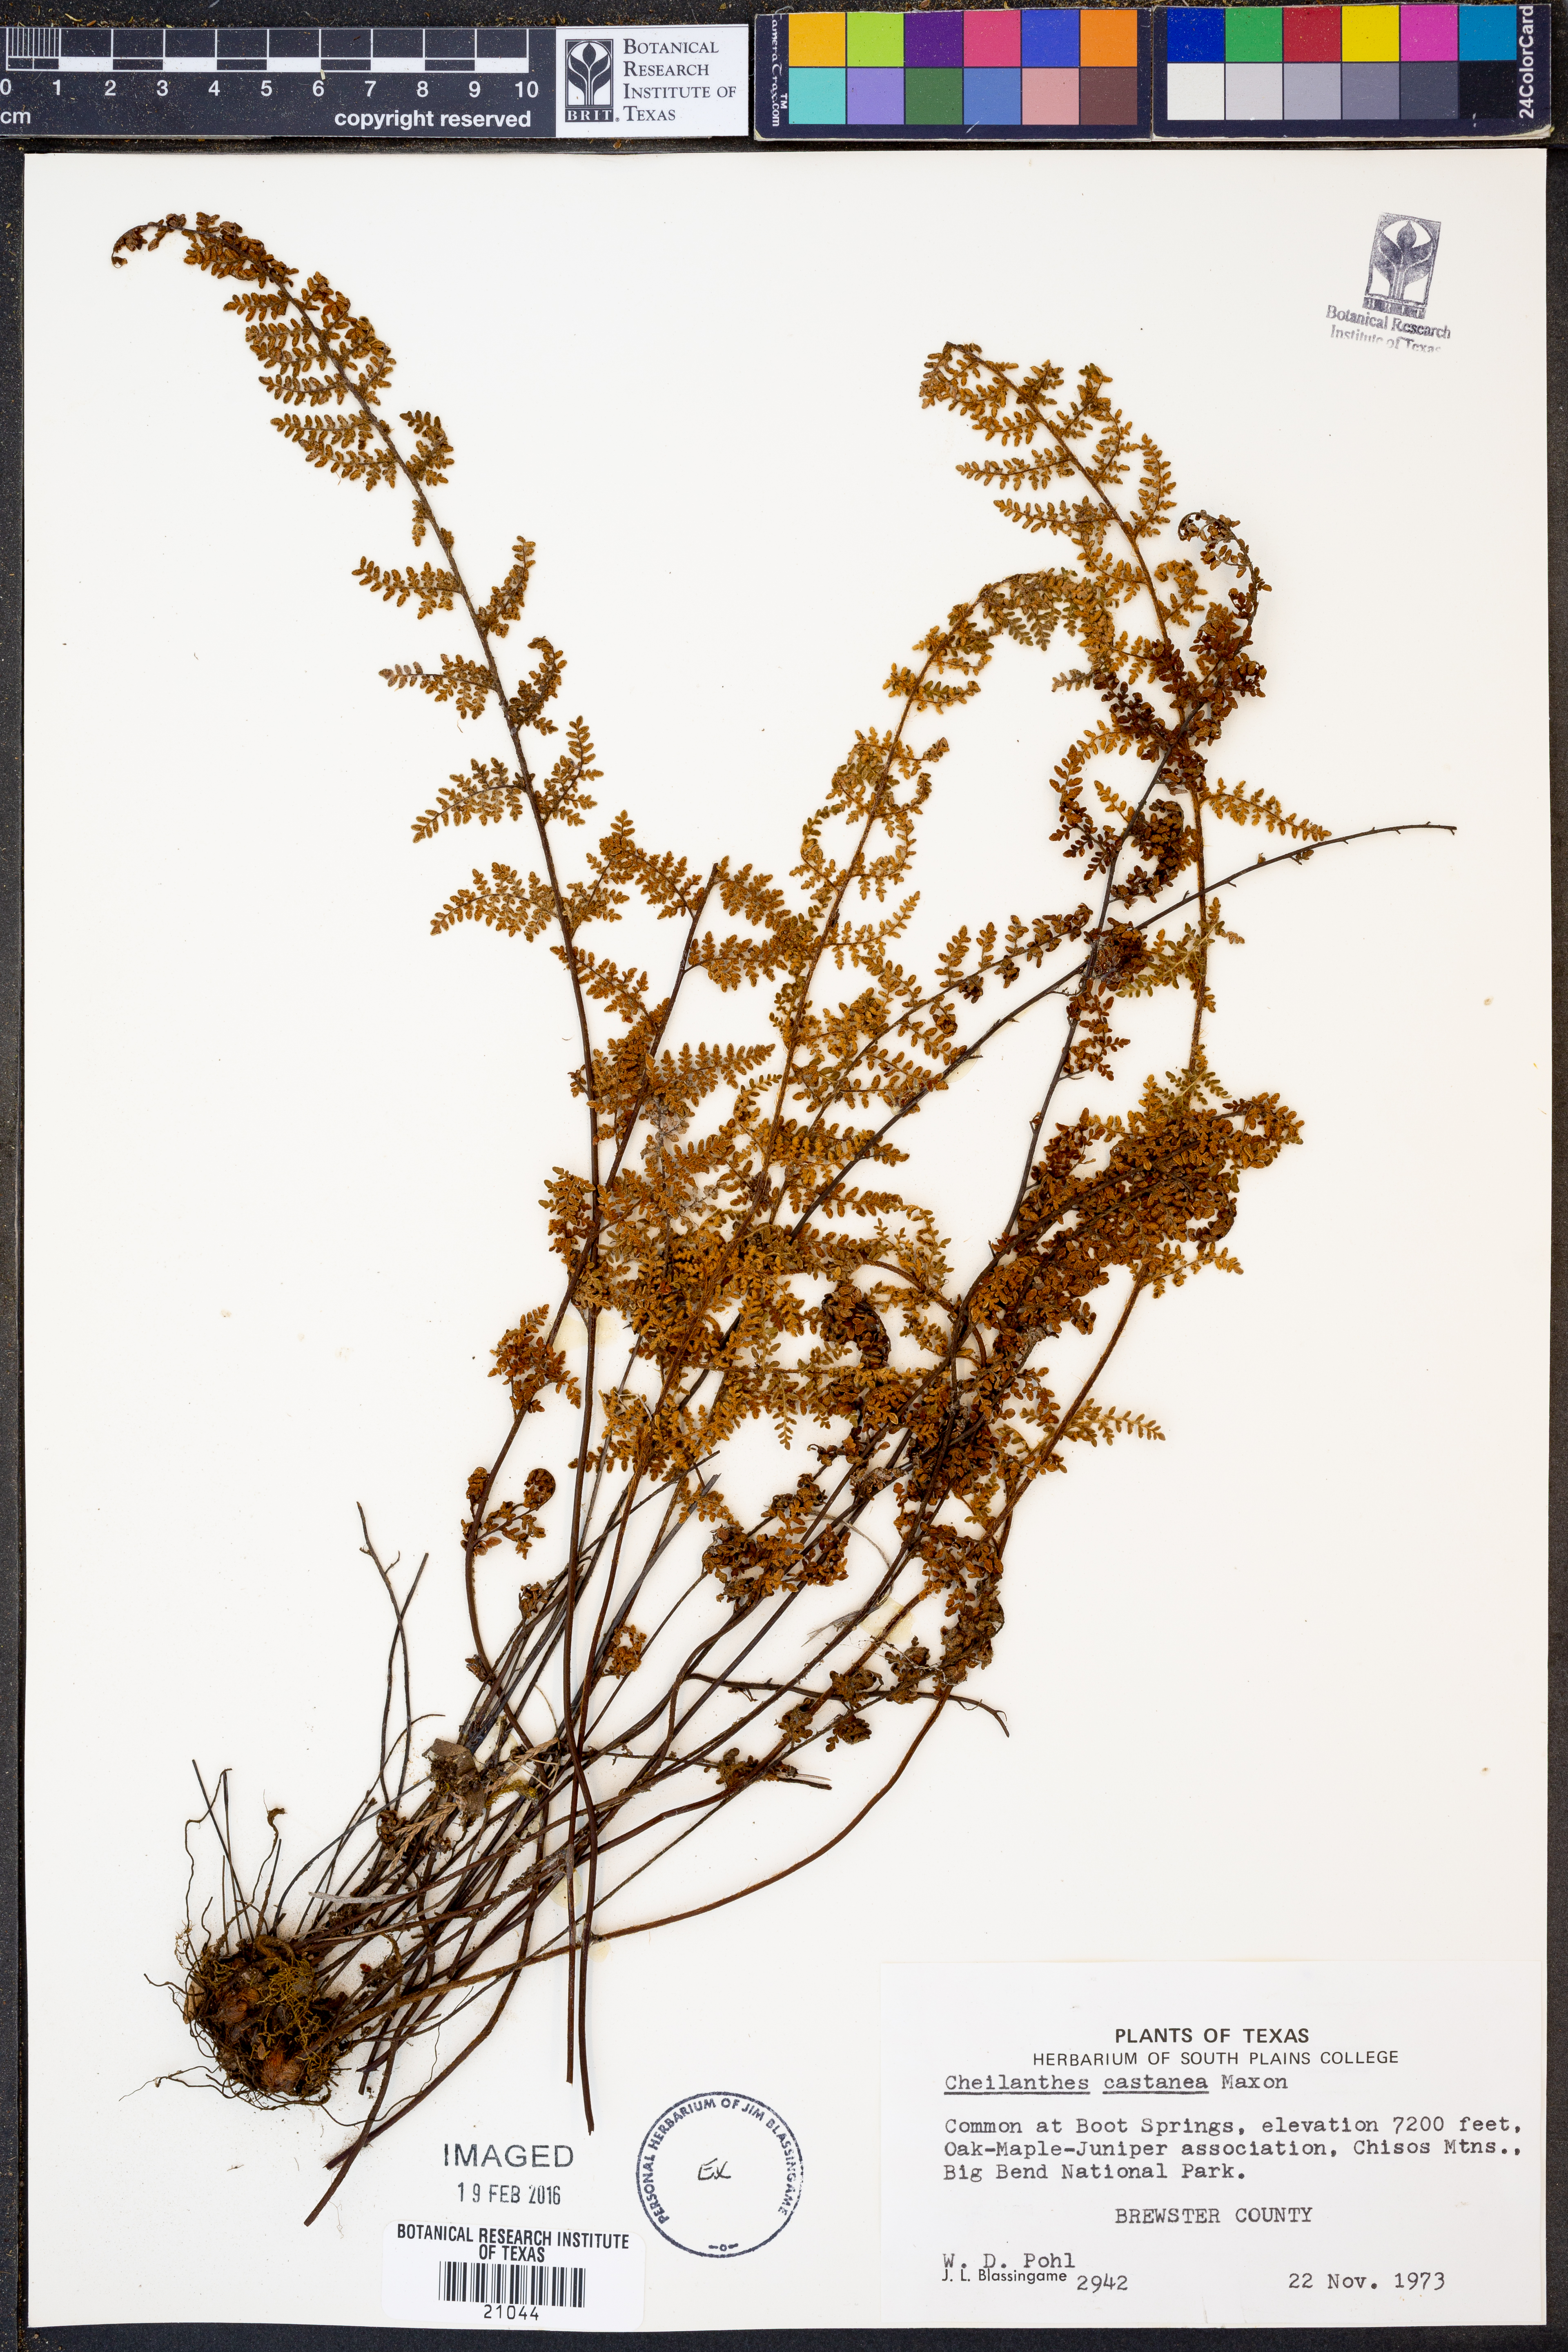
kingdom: Plantae
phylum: Tracheophyta
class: Polypodiopsida
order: Polypodiales
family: Pteridaceae
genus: Myriopteris
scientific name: Myriopteris rufa
